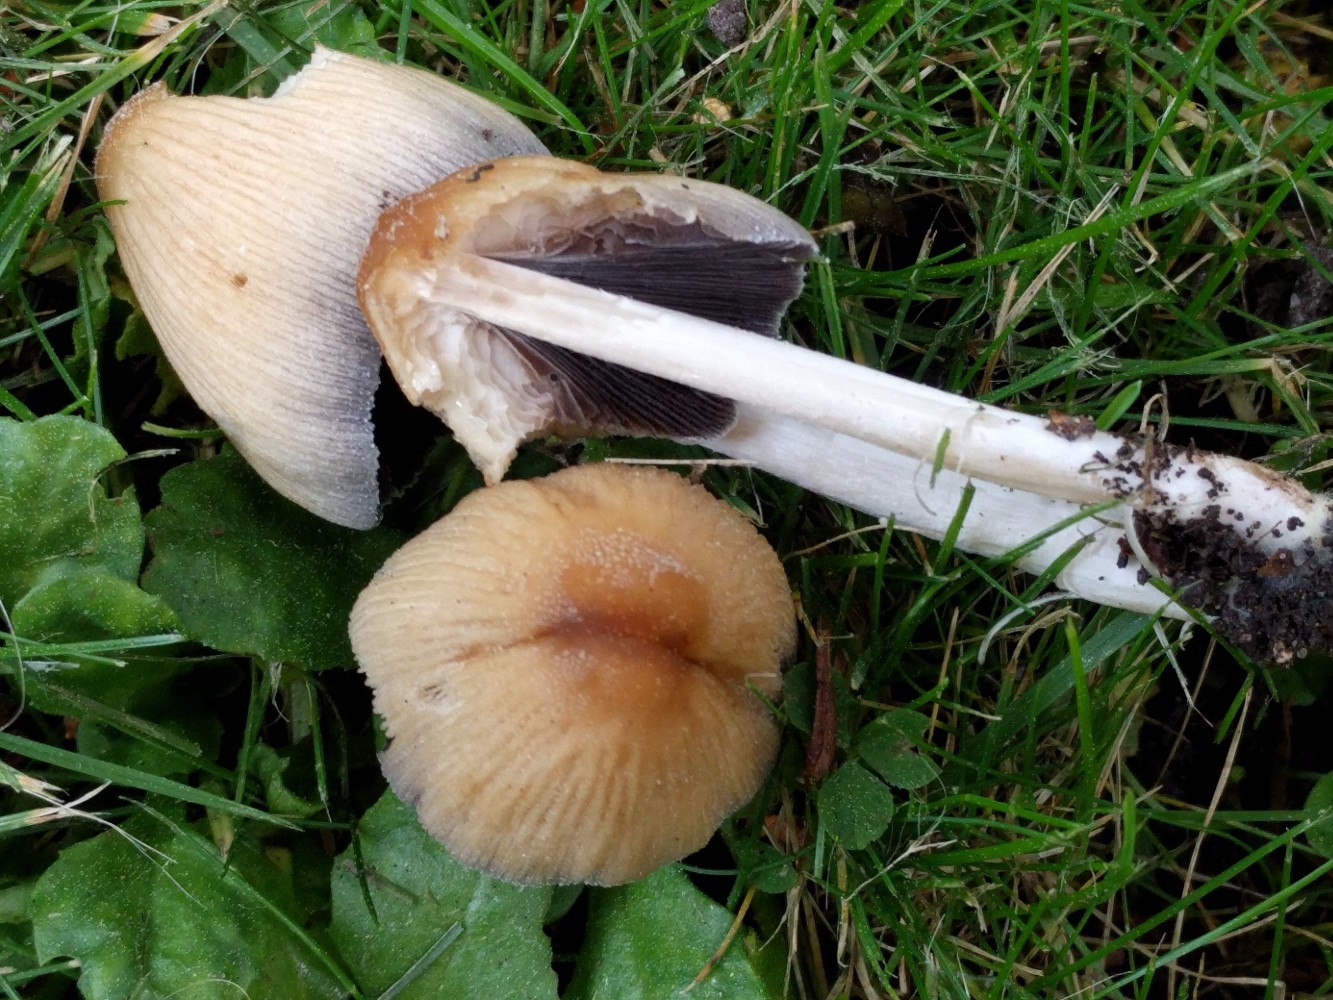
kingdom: Fungi
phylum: Basidiomycota
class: Agaricomycetes
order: Agaricales
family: Psathyrellaceae
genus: Coprinellus
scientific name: Coprinellus micaceus
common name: glimmer-blækhat
